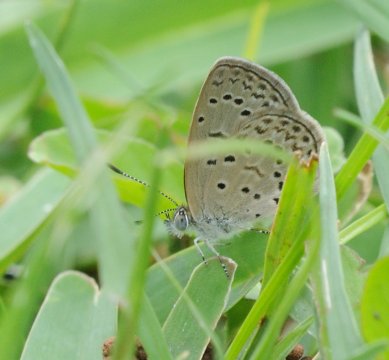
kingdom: Animalia
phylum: Arthropoda
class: Insecta
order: Lepidoptera
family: Lycaenidae
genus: Zizeeria
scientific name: Zizeeria knysna
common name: Dark Grass Blue
